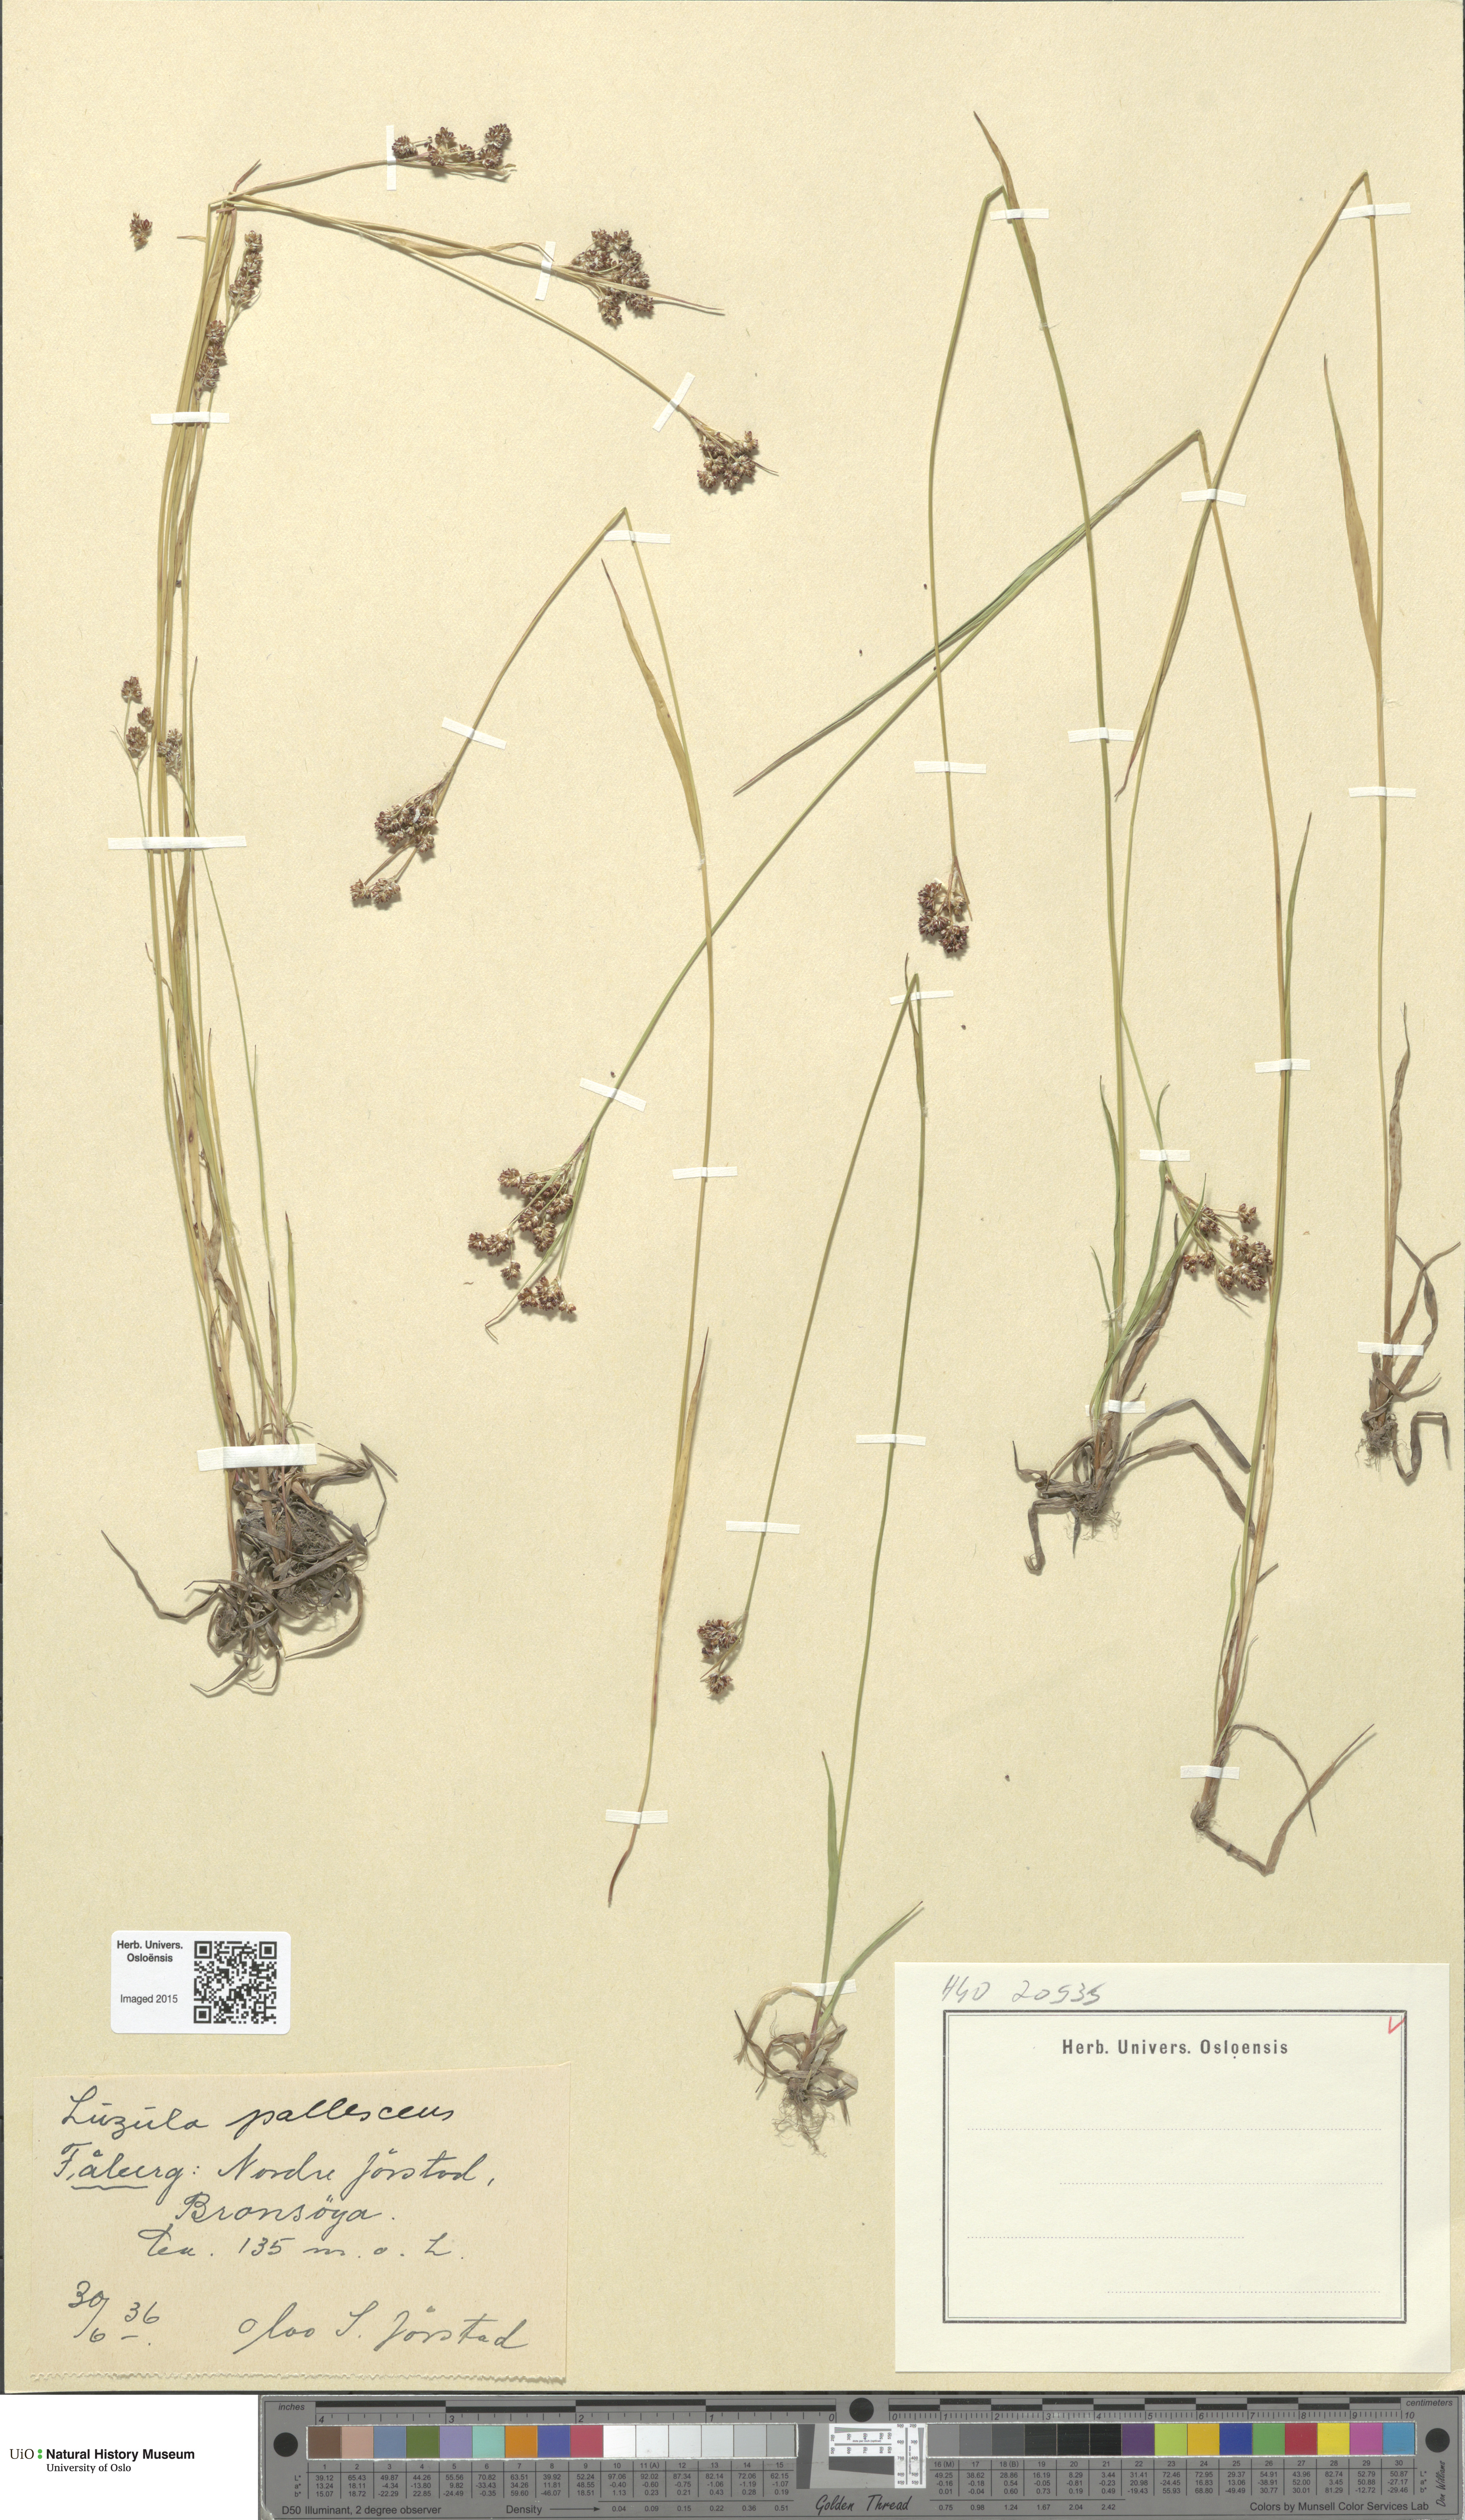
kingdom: Plantae
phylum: Tracheophyta
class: Liliopsida
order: Poales
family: Juncaceae
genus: Luzula
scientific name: Luzula pallescens
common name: Fen wood-rush
